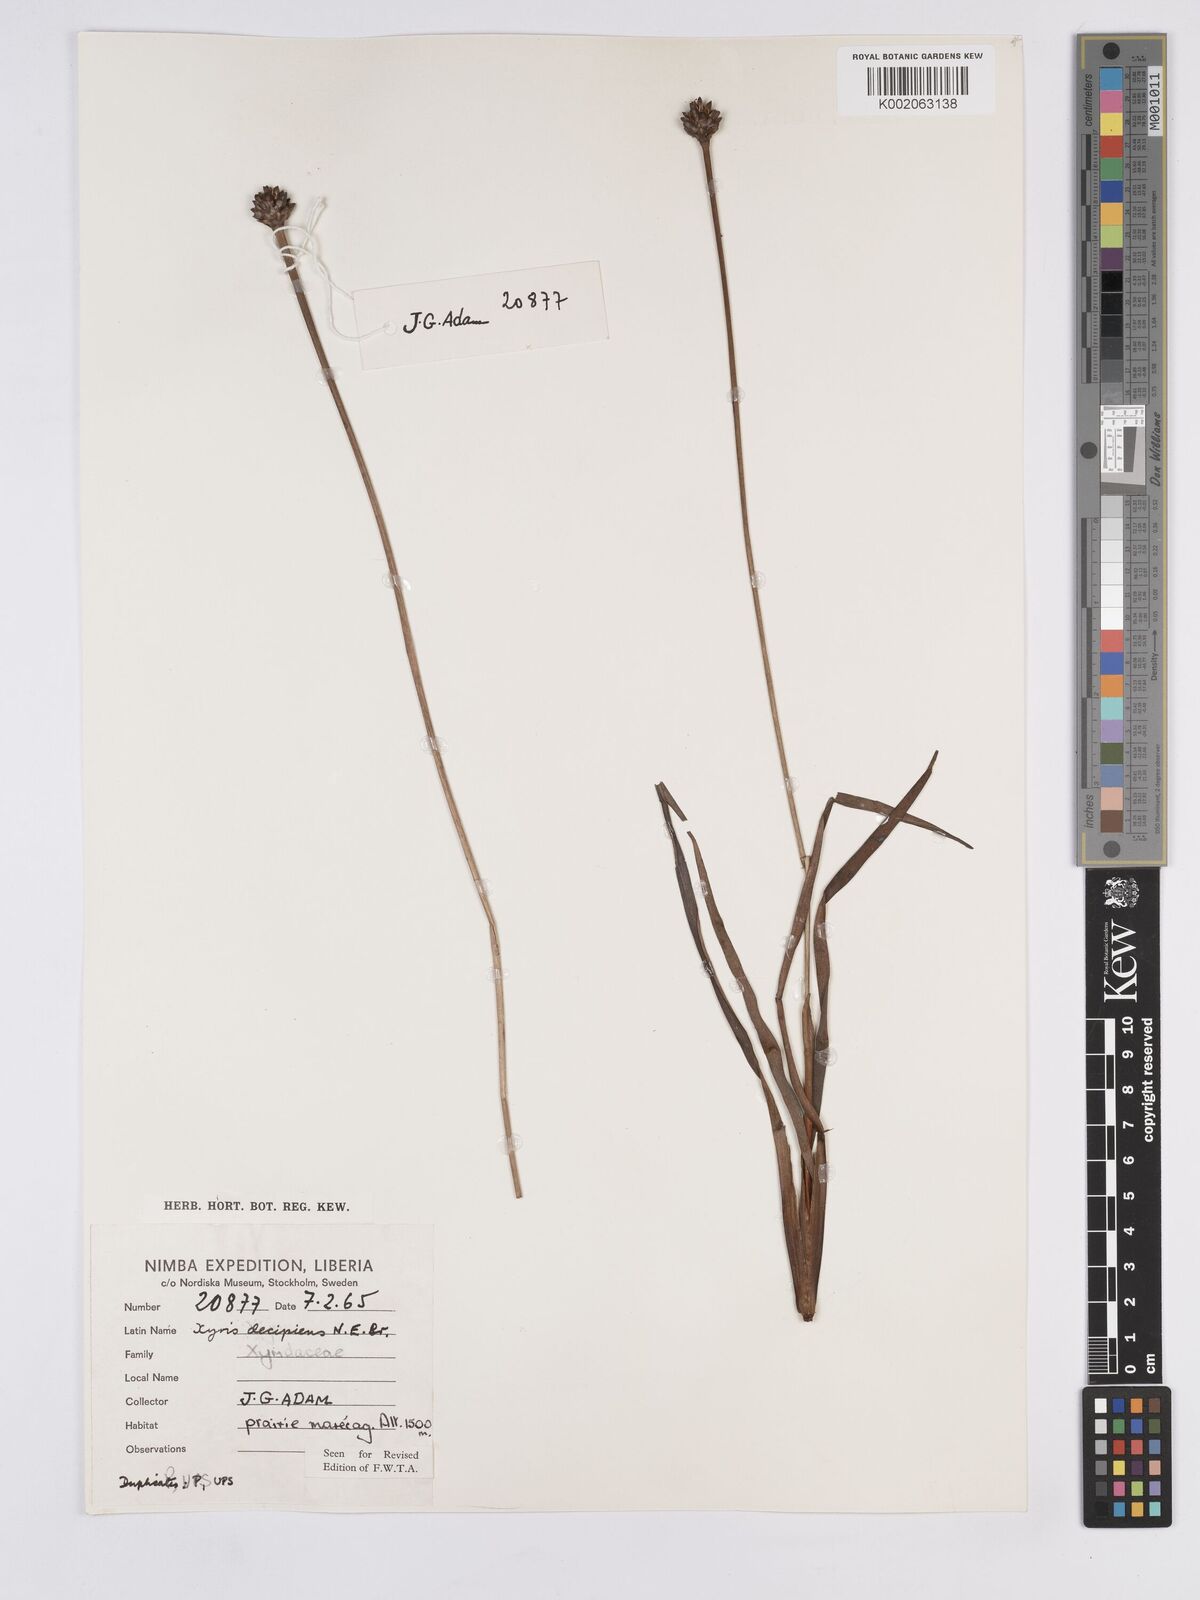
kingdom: Plantae
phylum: Tracheophyta
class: Liliopsida
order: Poales
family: Xyridaceae
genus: Xyris
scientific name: Xyris decipiens
